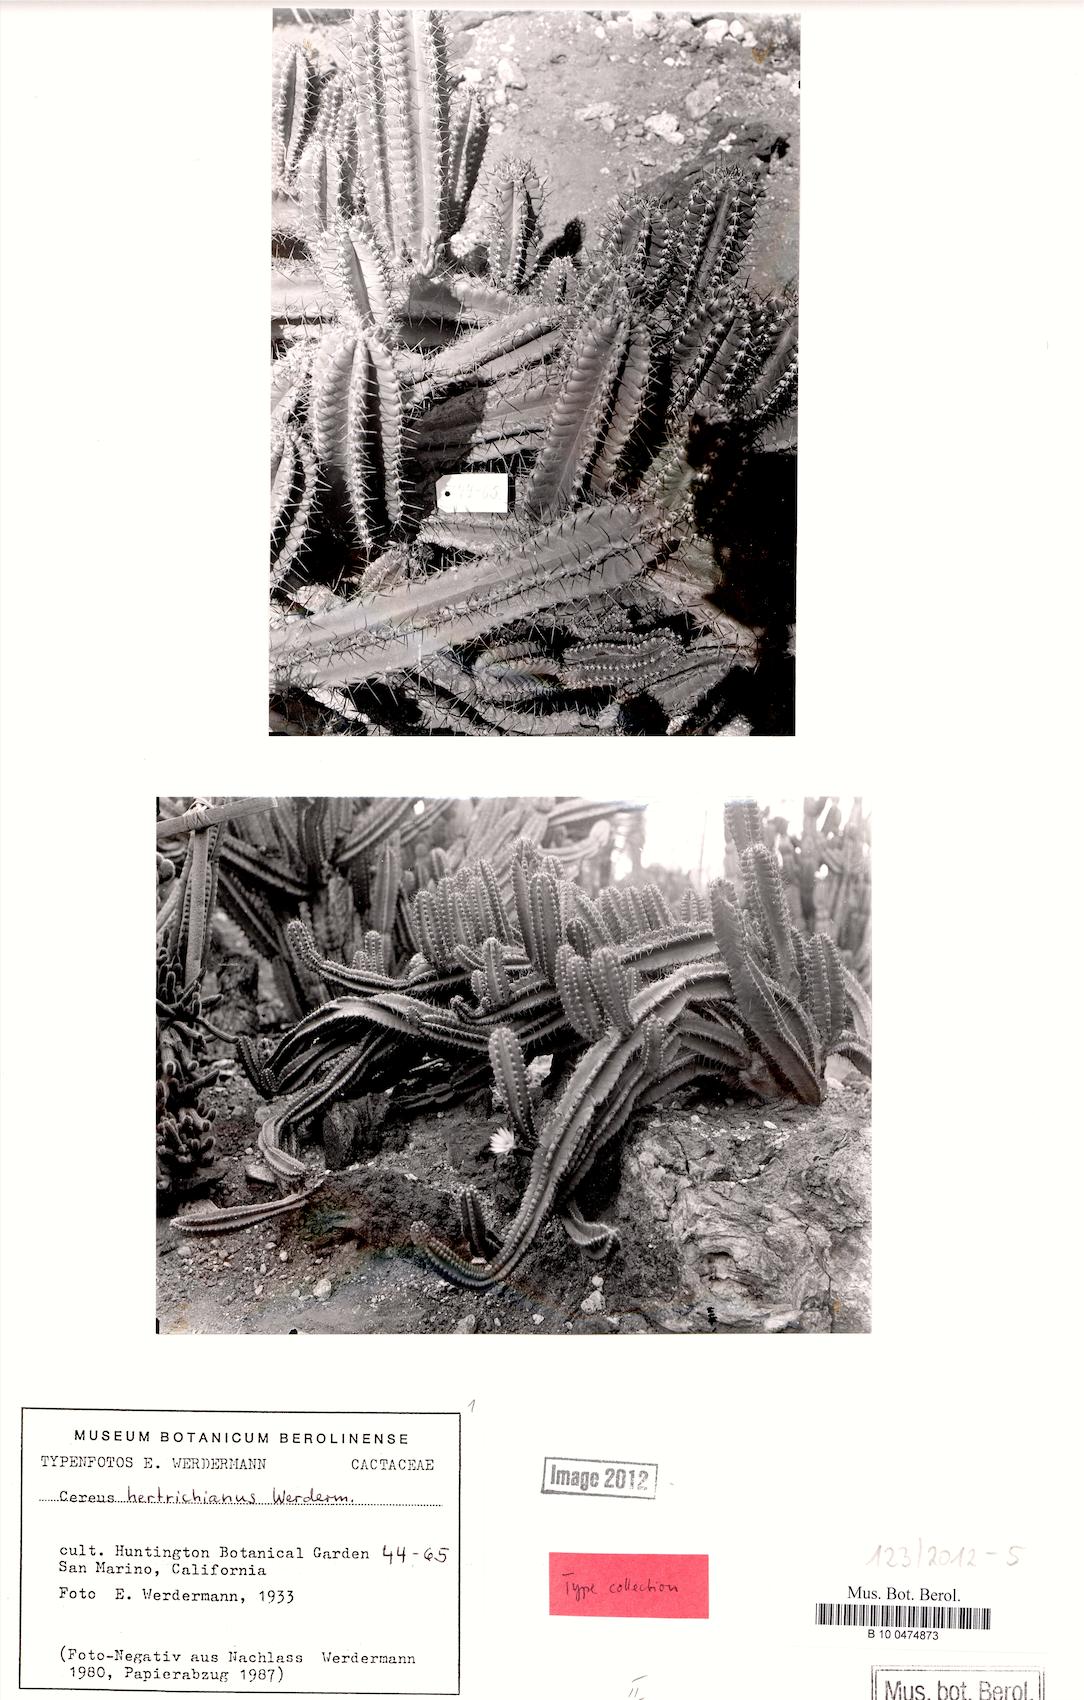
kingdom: Plantae
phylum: Tracheophyta
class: Magnoliopsida
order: Caryophyllales
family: Cactaceae
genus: Cereus
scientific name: Cereus hertrichianus
